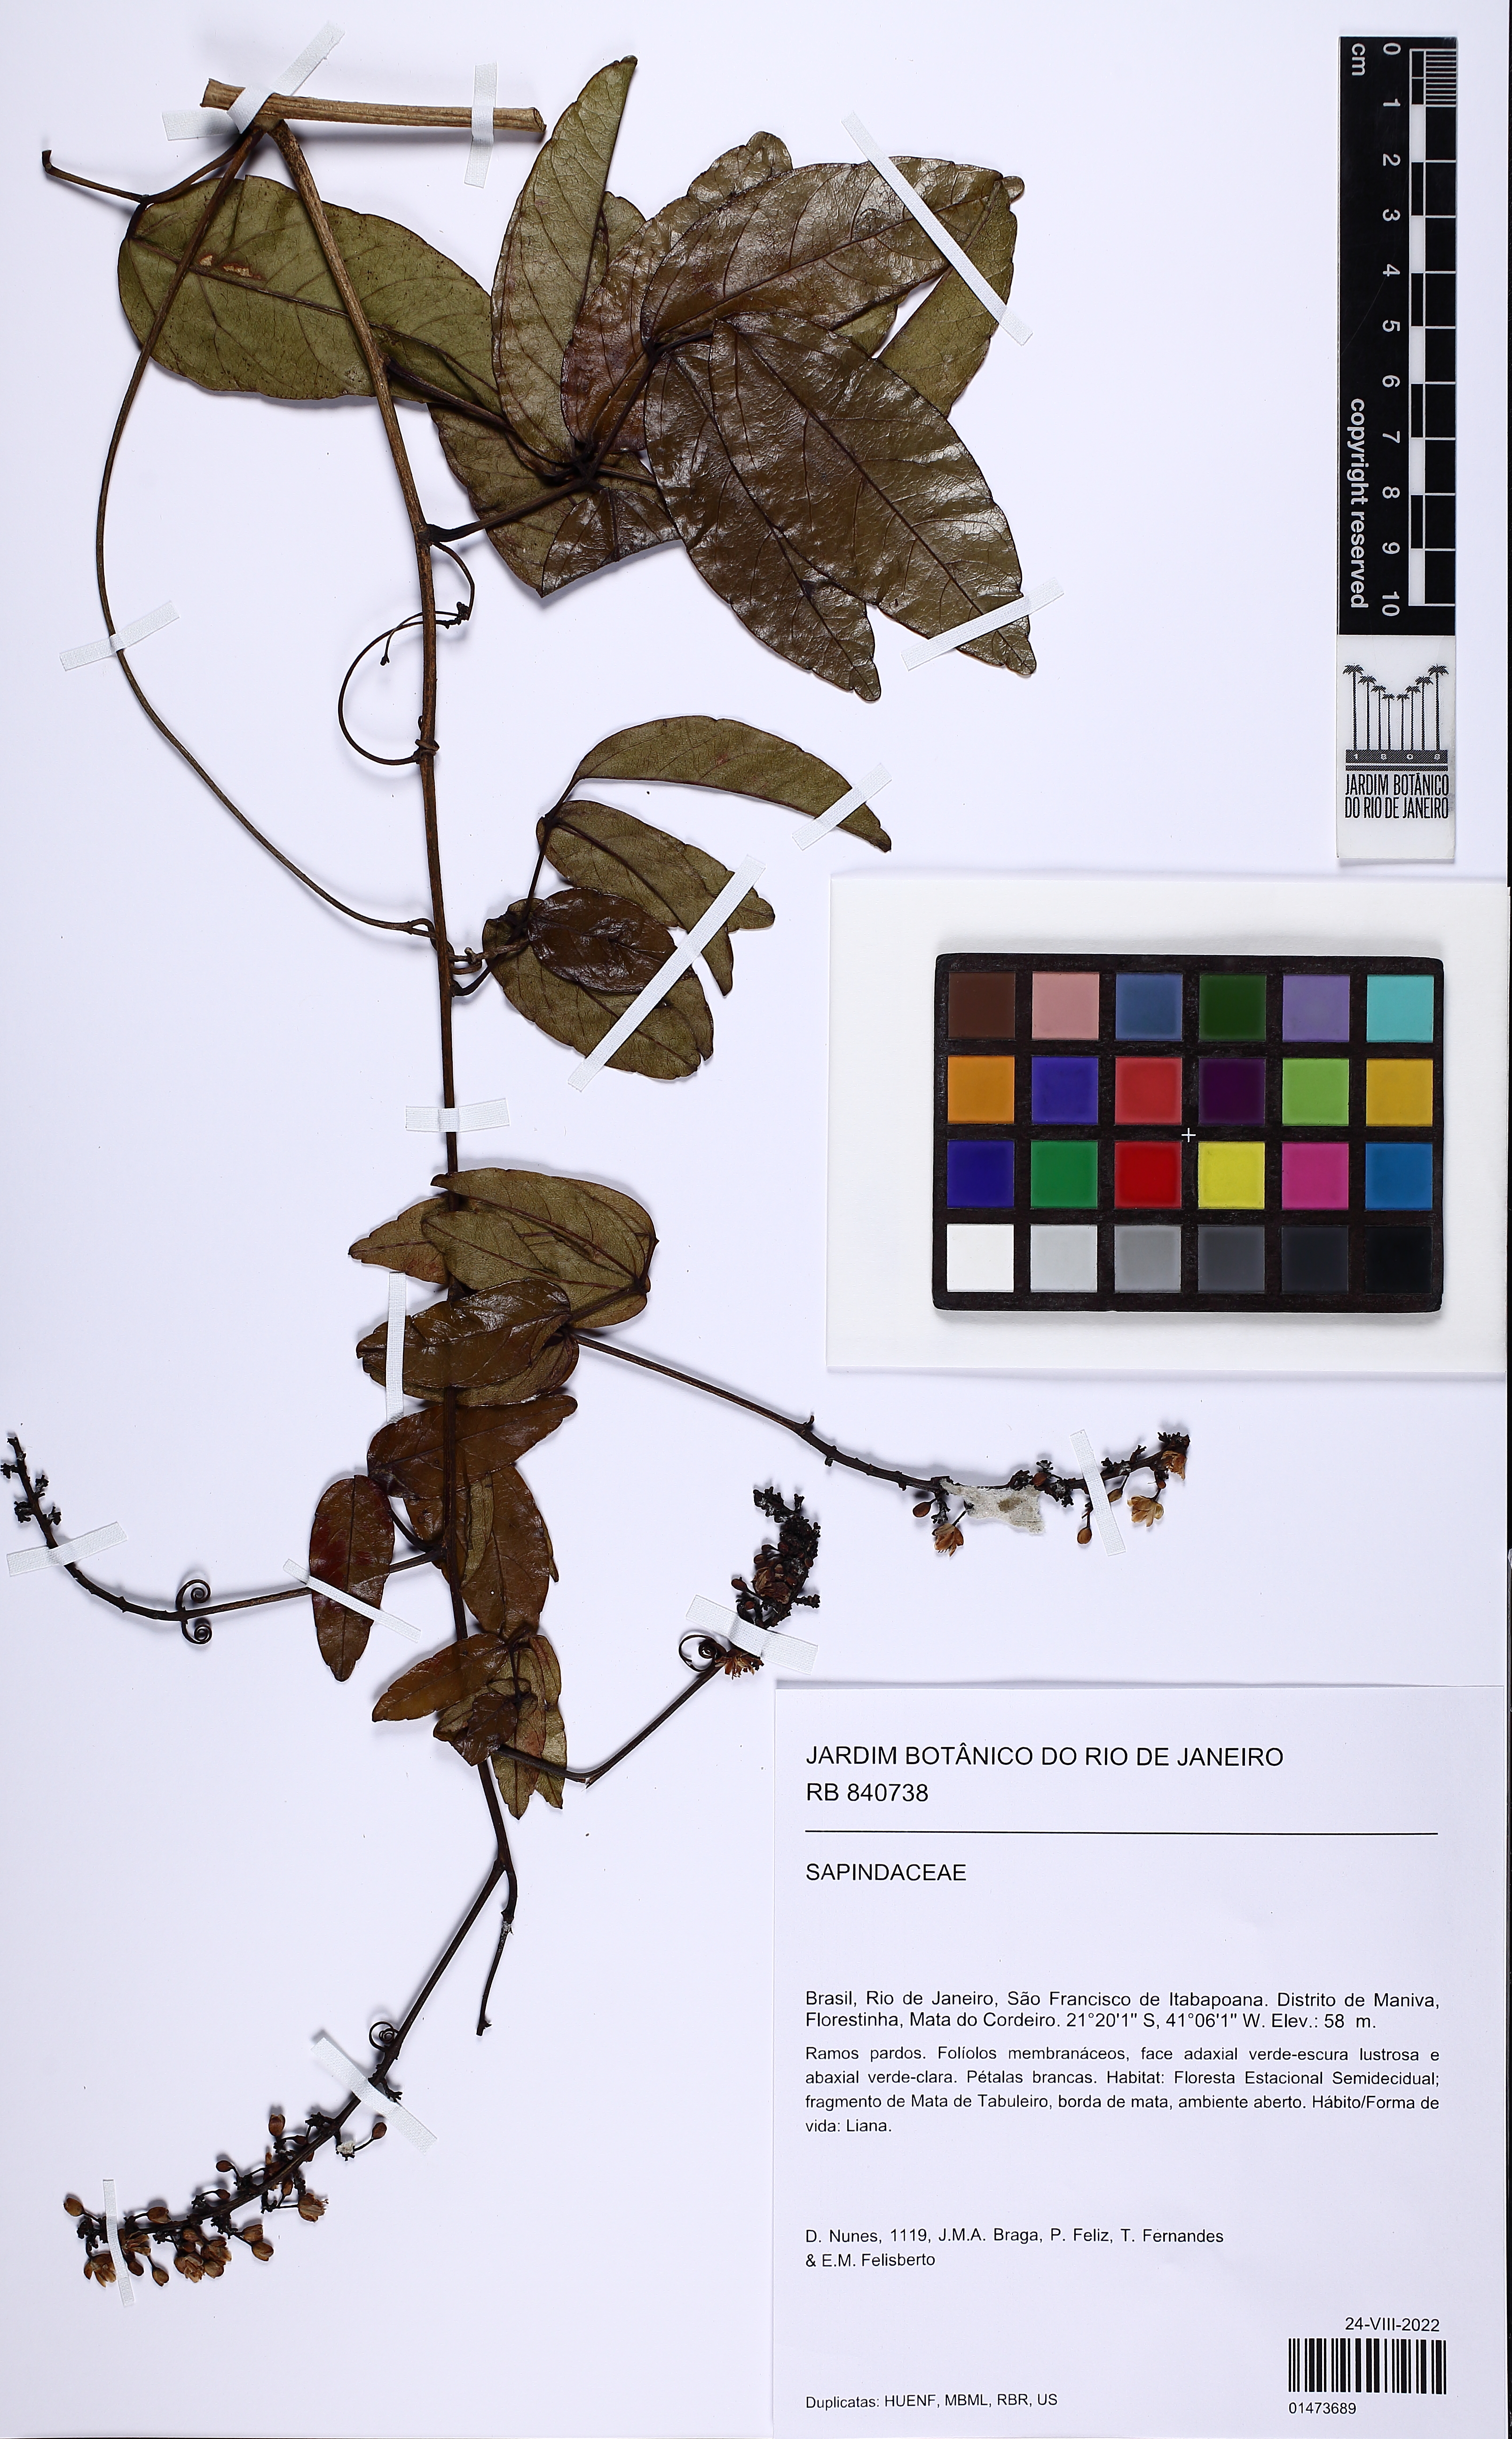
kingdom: Plantae
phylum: Tracheophyta
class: Magnoliopsida
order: Sapindales
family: Sapindaceae
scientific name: Sapindaceae
